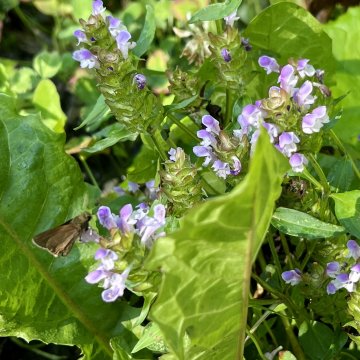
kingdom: Animalia
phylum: Arthropoda
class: Insecta
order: Lepidoptera
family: Hesperiidae
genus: Euphyes
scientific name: Euphyes vestris
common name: Dun Skipper
